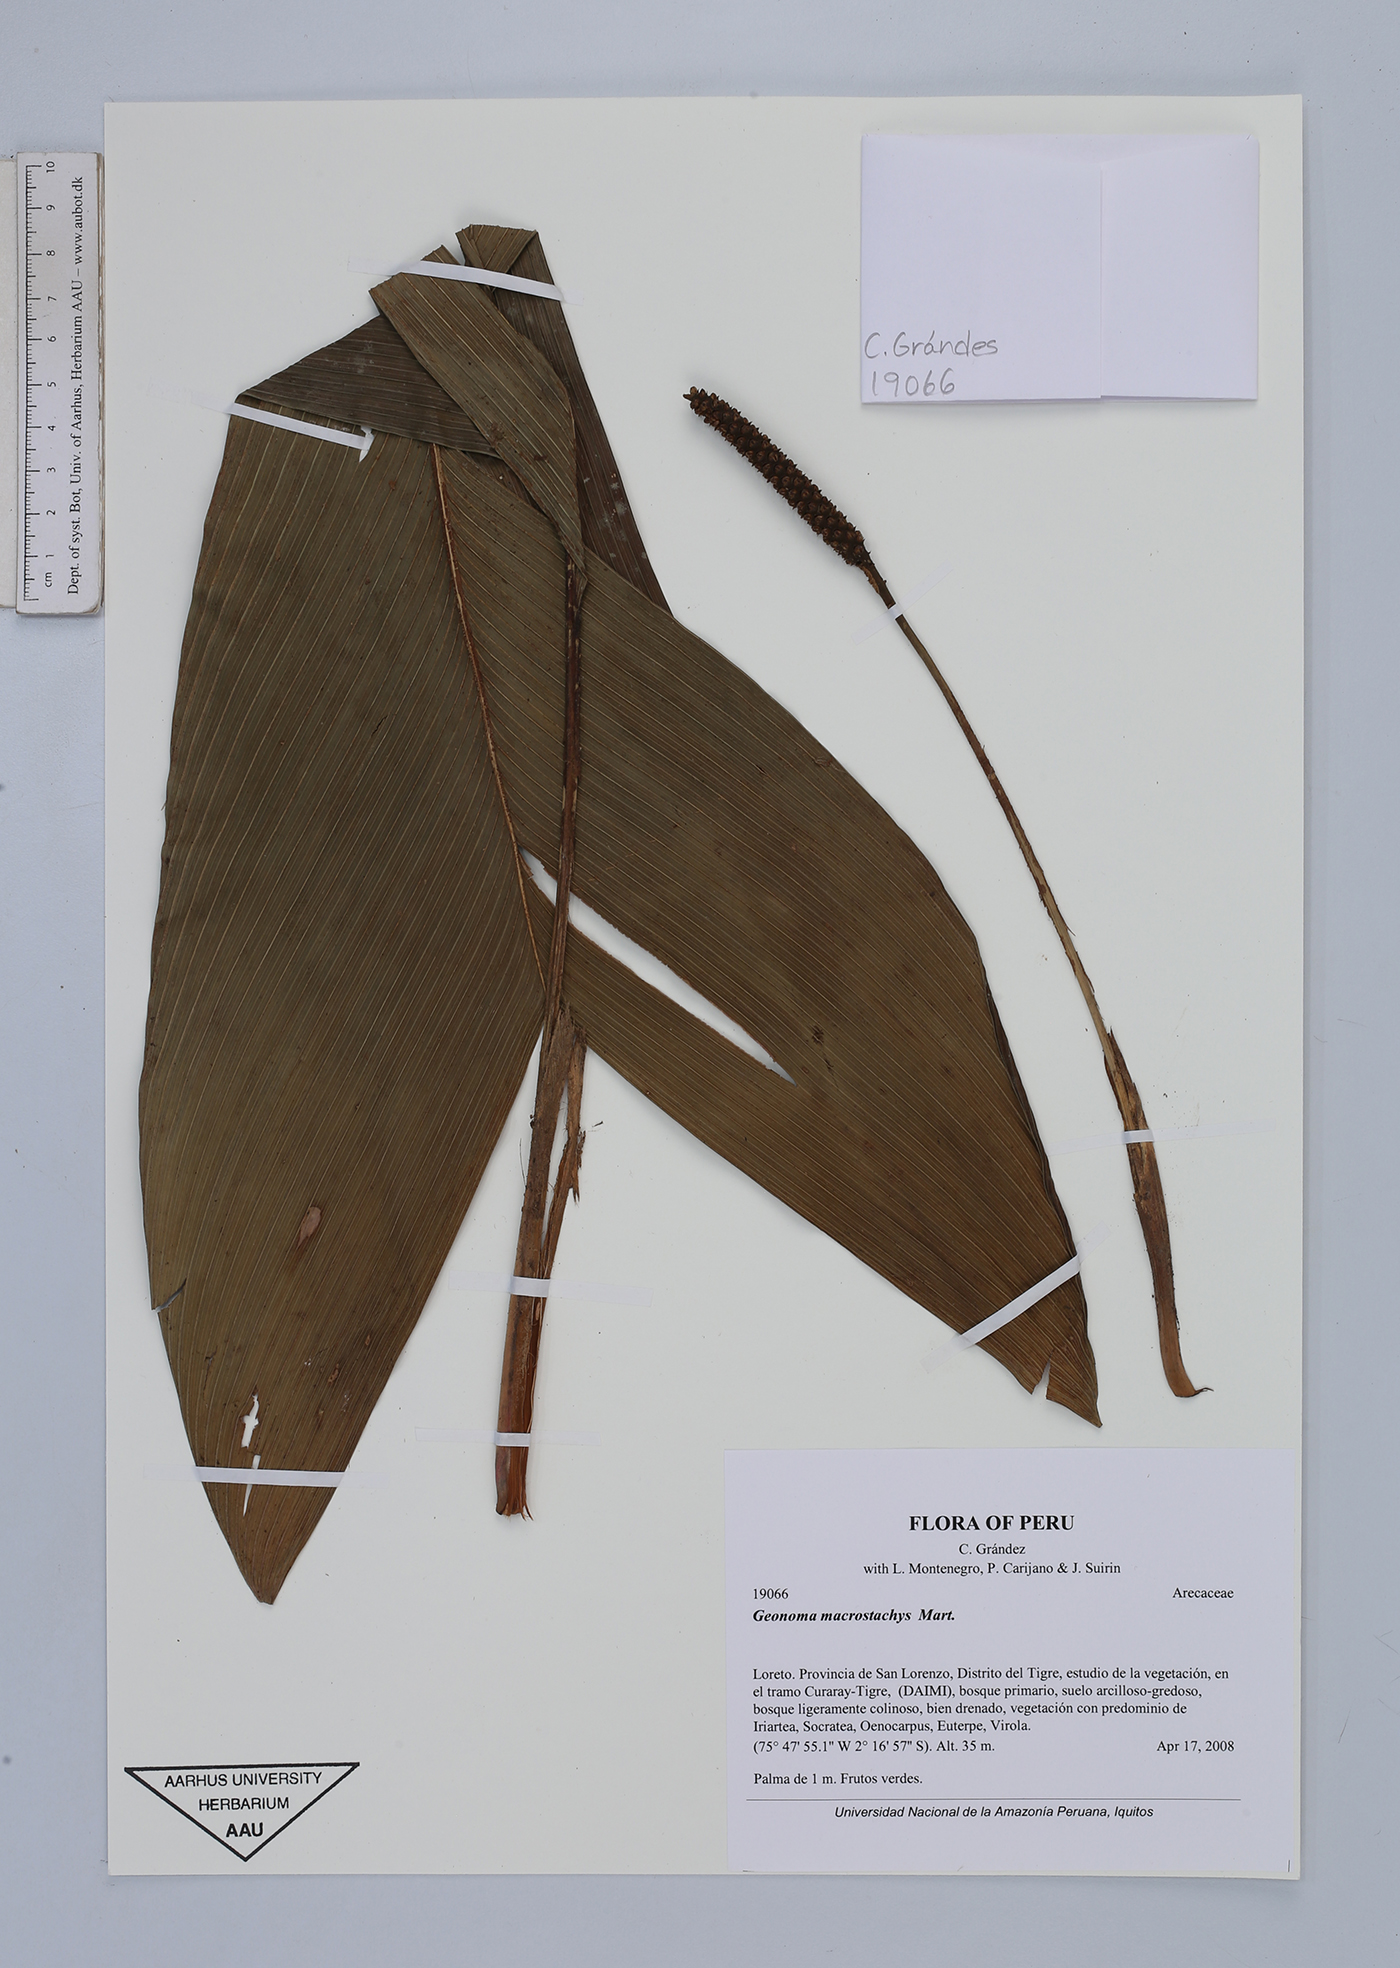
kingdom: Plantae
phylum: Tracheophyta
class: Liliopsida
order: Arecales
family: Arecaceae
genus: Geonoma
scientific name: Geonoma macrostachys
